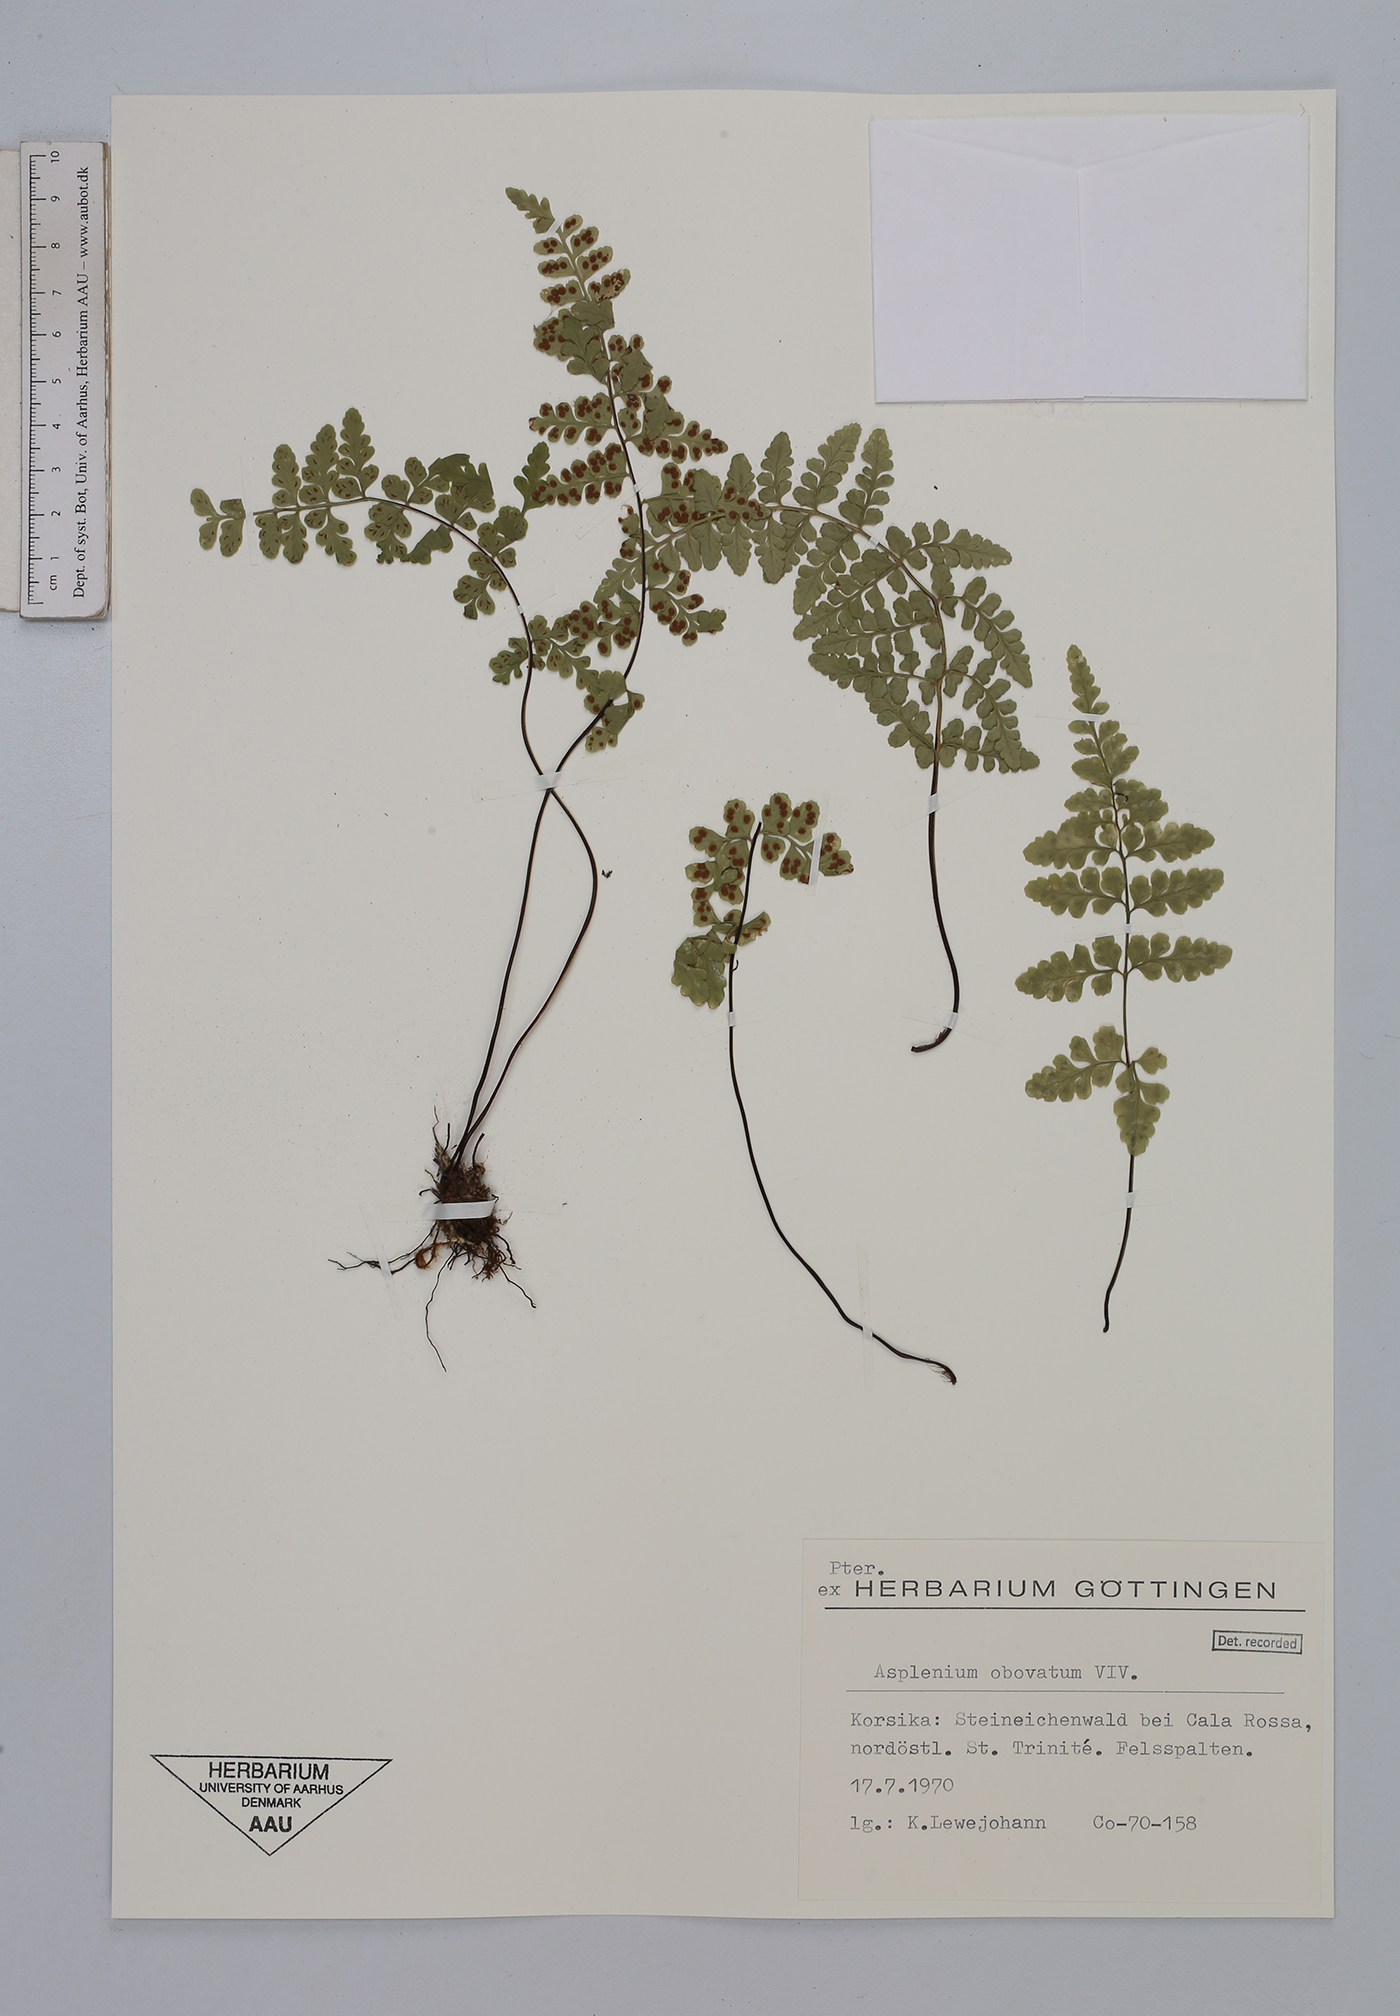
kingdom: Plantae
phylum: Tracheophyta
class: Polypodiopsida
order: Polypodiales
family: Aspleniaceae
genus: Asplenium
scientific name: Asplenium obovatum
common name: Lanceolate spleenwort
